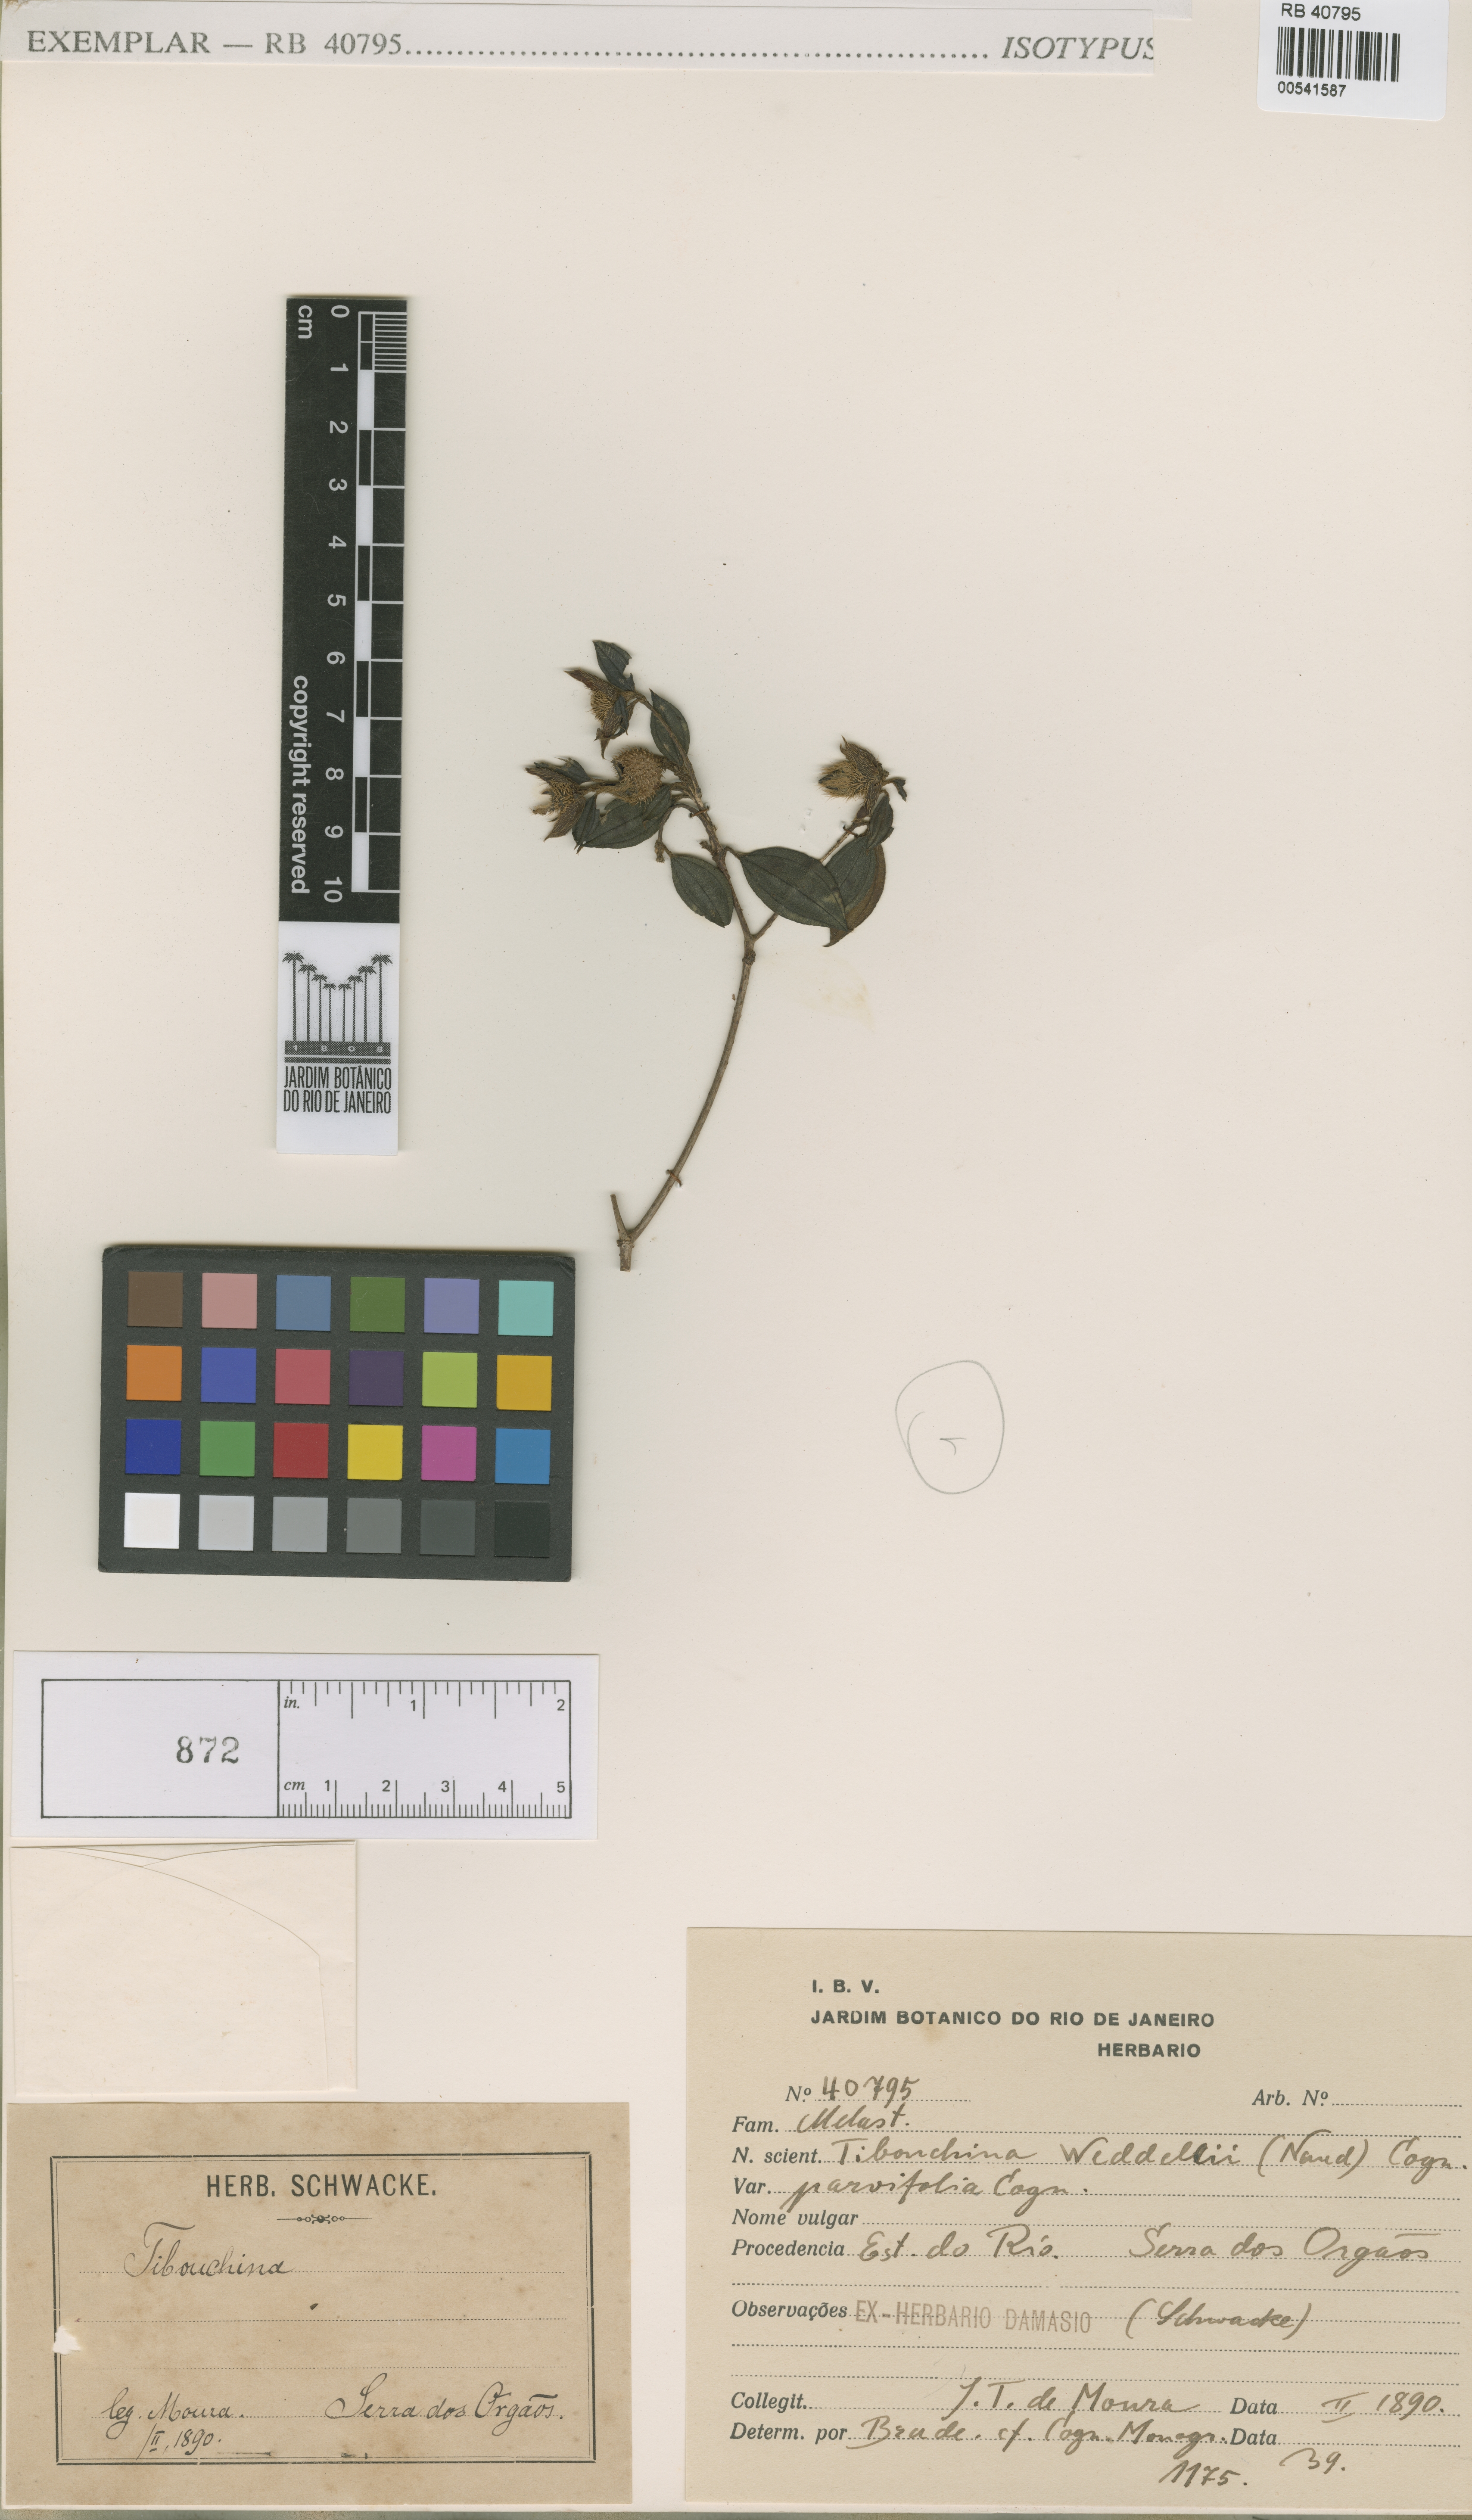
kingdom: Plantae
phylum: Tracheophyta
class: Magnoliopsida
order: Myrtales
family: Melastomataceae
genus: Pleroma
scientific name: Pleroma elegans
